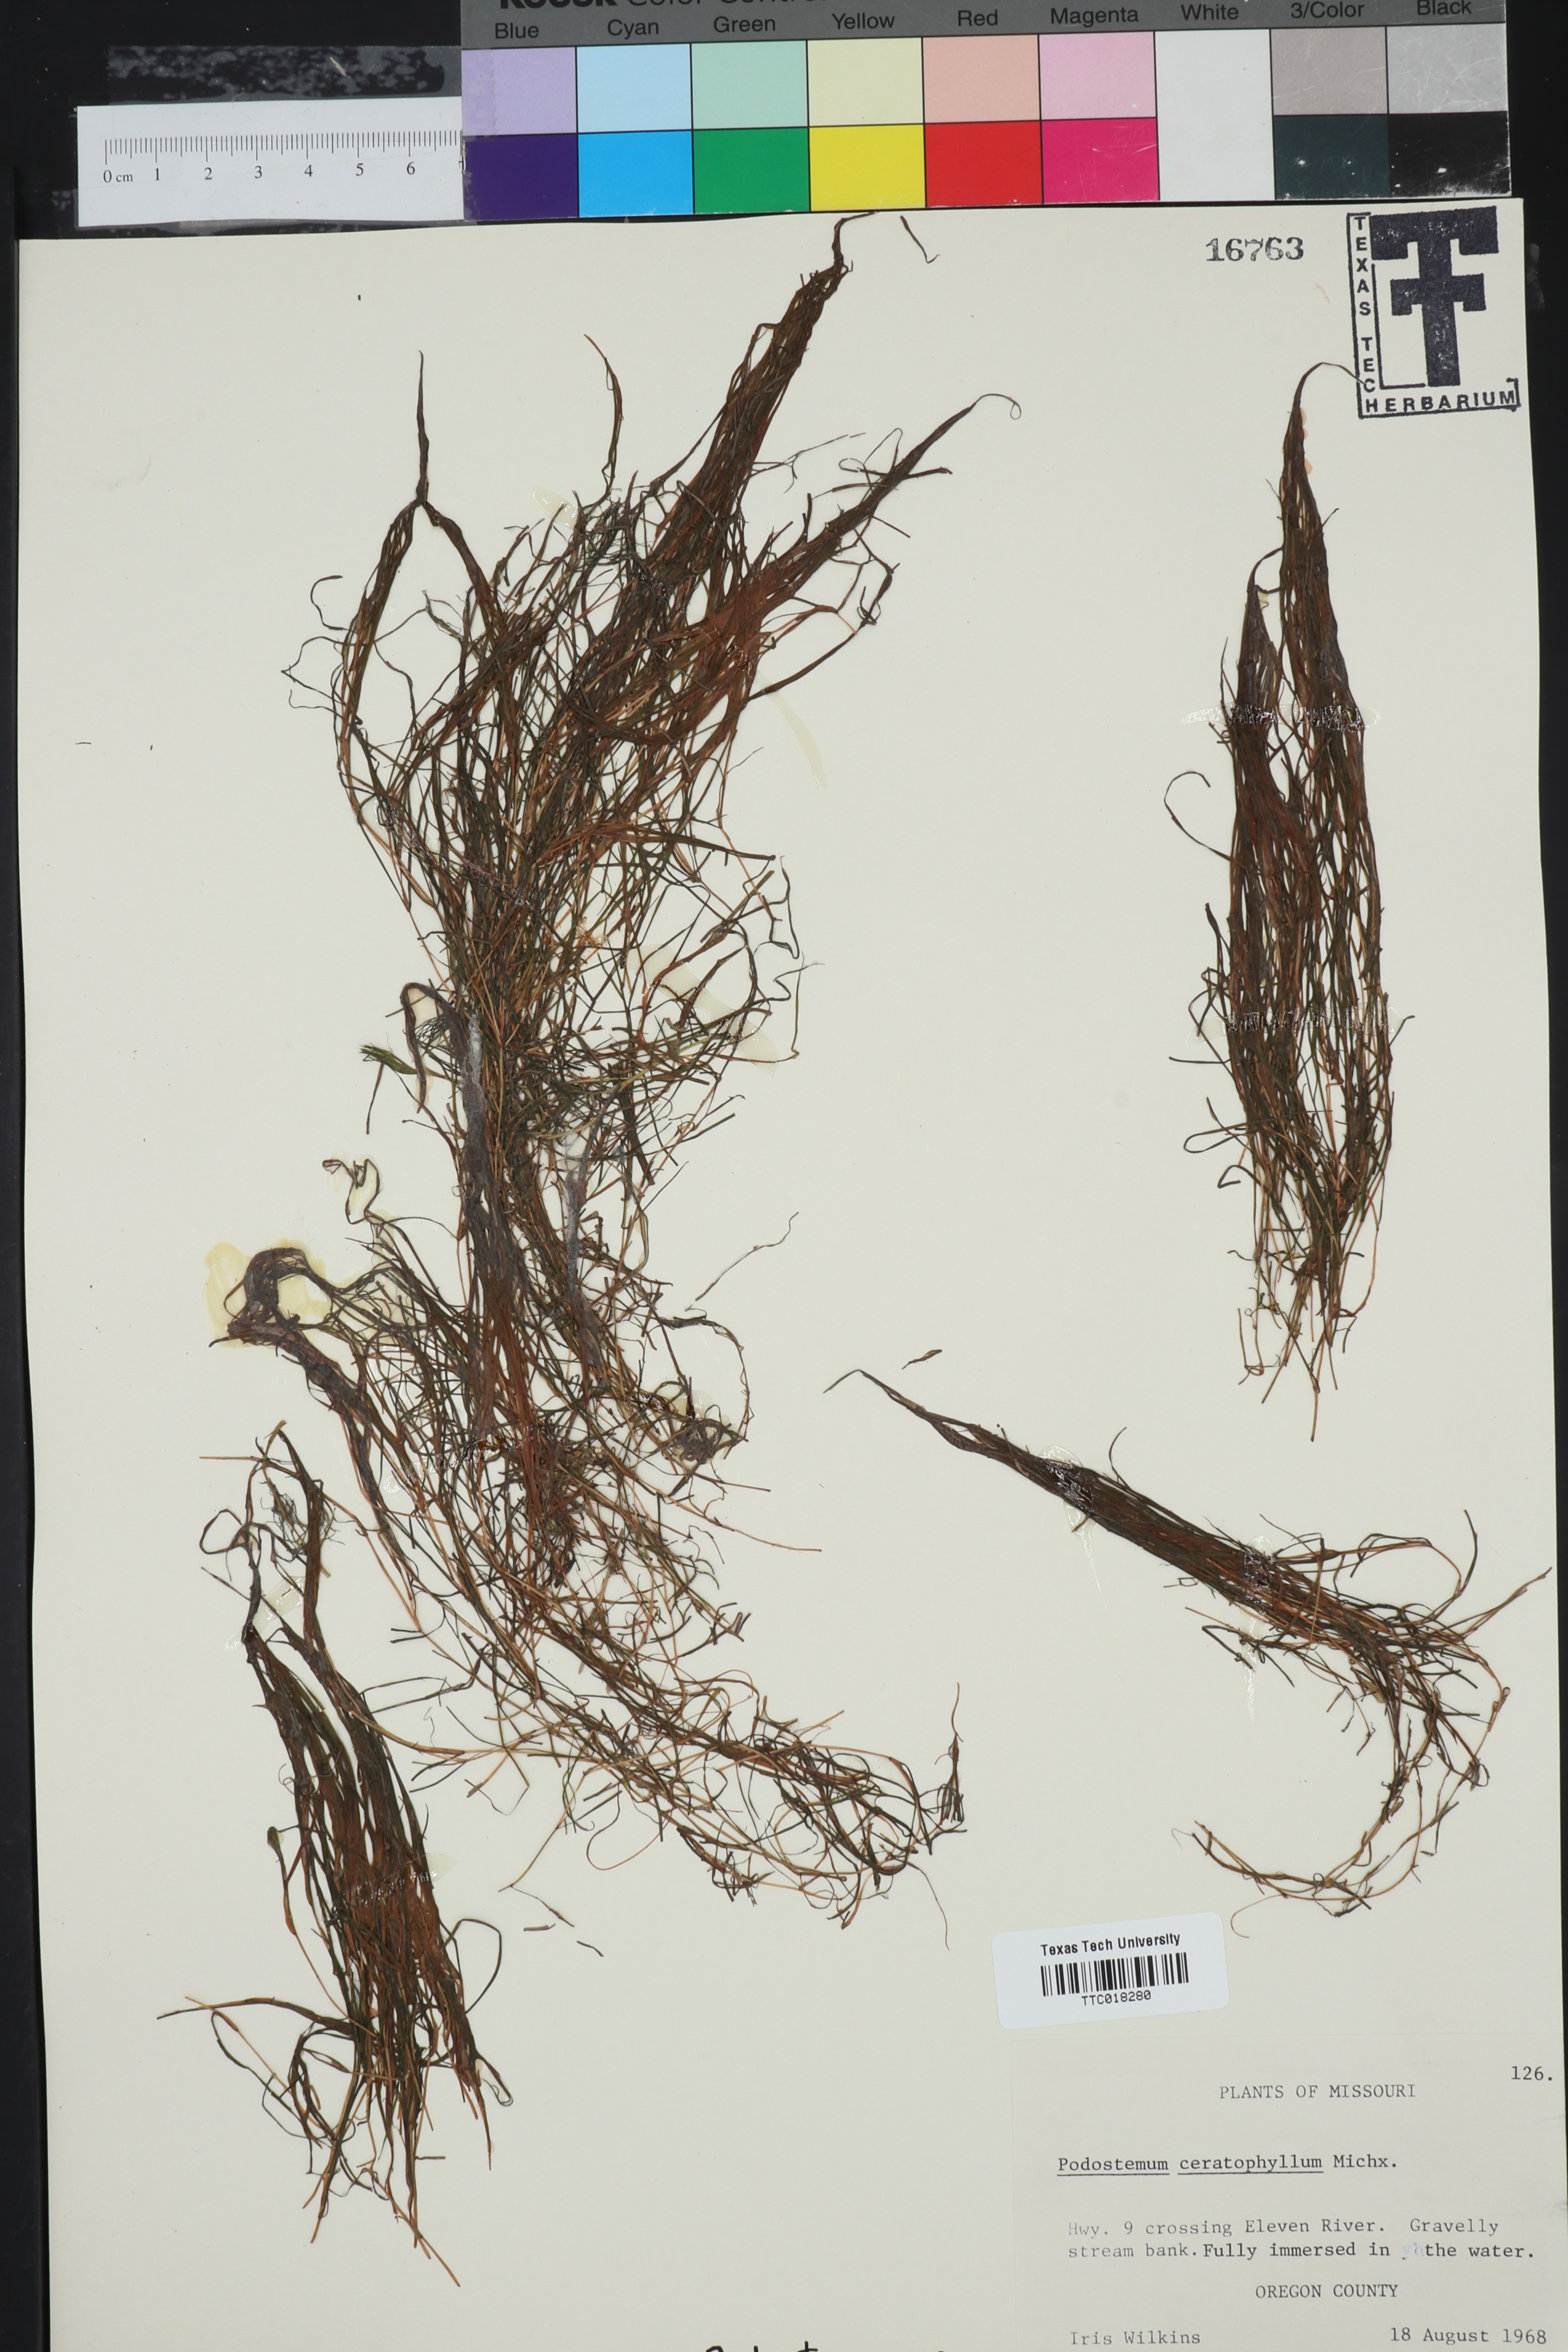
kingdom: Plantae
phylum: Tracheophyta
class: Magnoliopsida
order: Malpighiales
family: Podostemaceae
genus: Podostemum
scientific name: Podostemum ceratophyllum
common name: Horn-leaved riverweed
